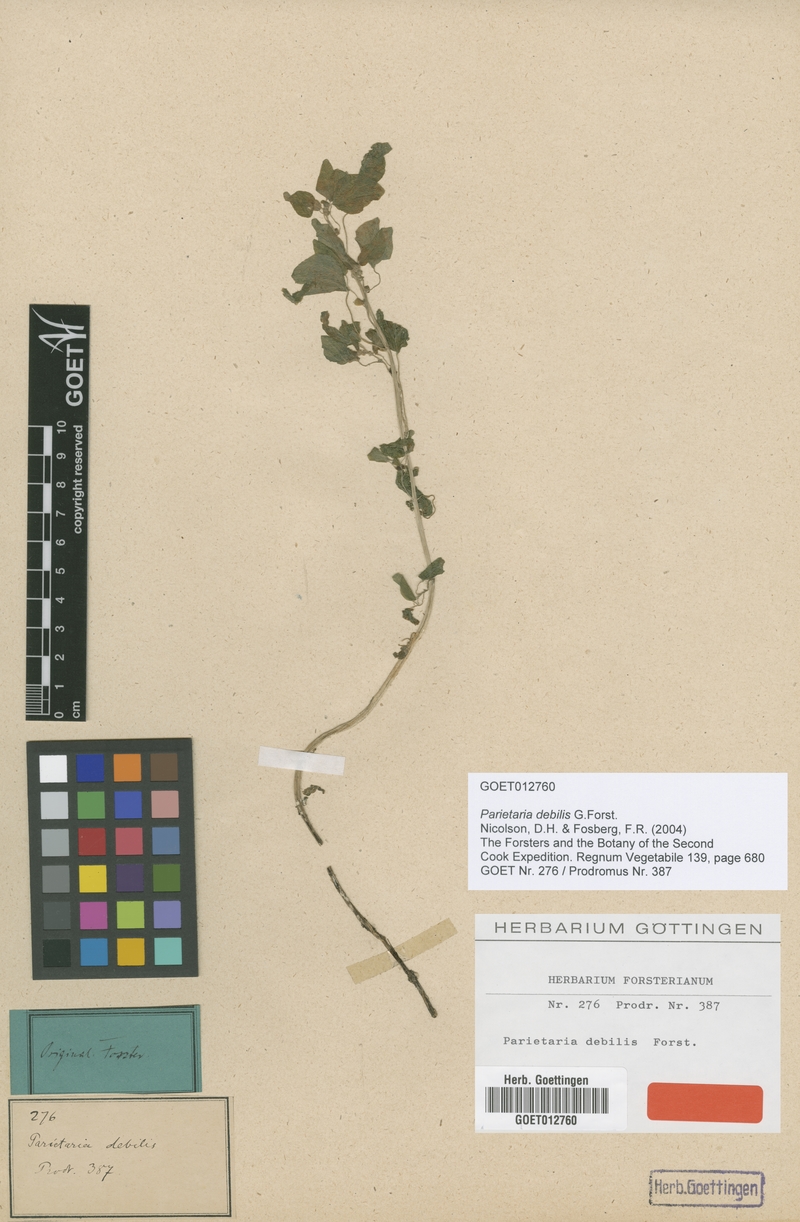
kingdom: Plantae
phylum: Tracheophyta
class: Magnoliopsida
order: Rosales
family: Urticaceae
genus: Parietaria
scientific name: Parietaria debilis
